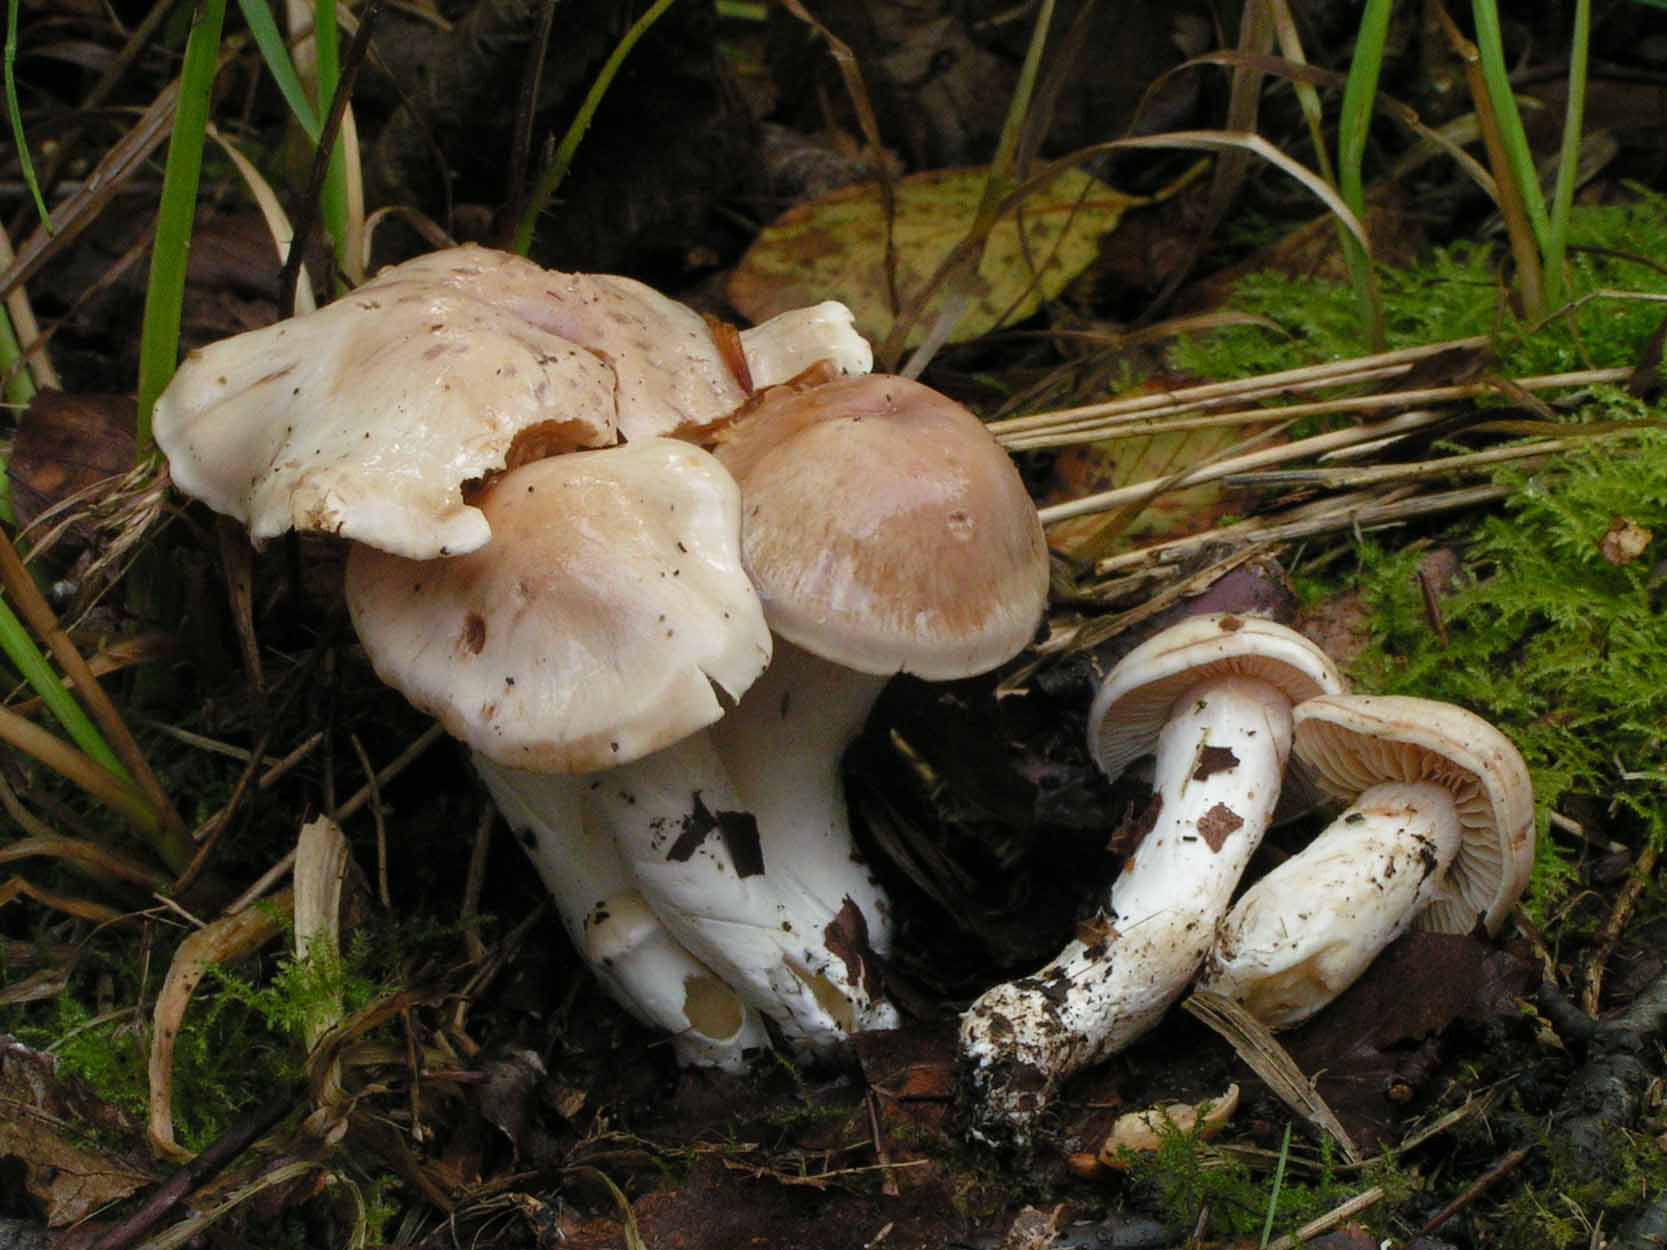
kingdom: Fungi
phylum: Basidiomycota
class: Agaricomycetes
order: Agaricales
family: Cortinariaceae
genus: Thaxterogaster
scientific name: Thaxterogaster barbatus
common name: elfenbens-slørhat
